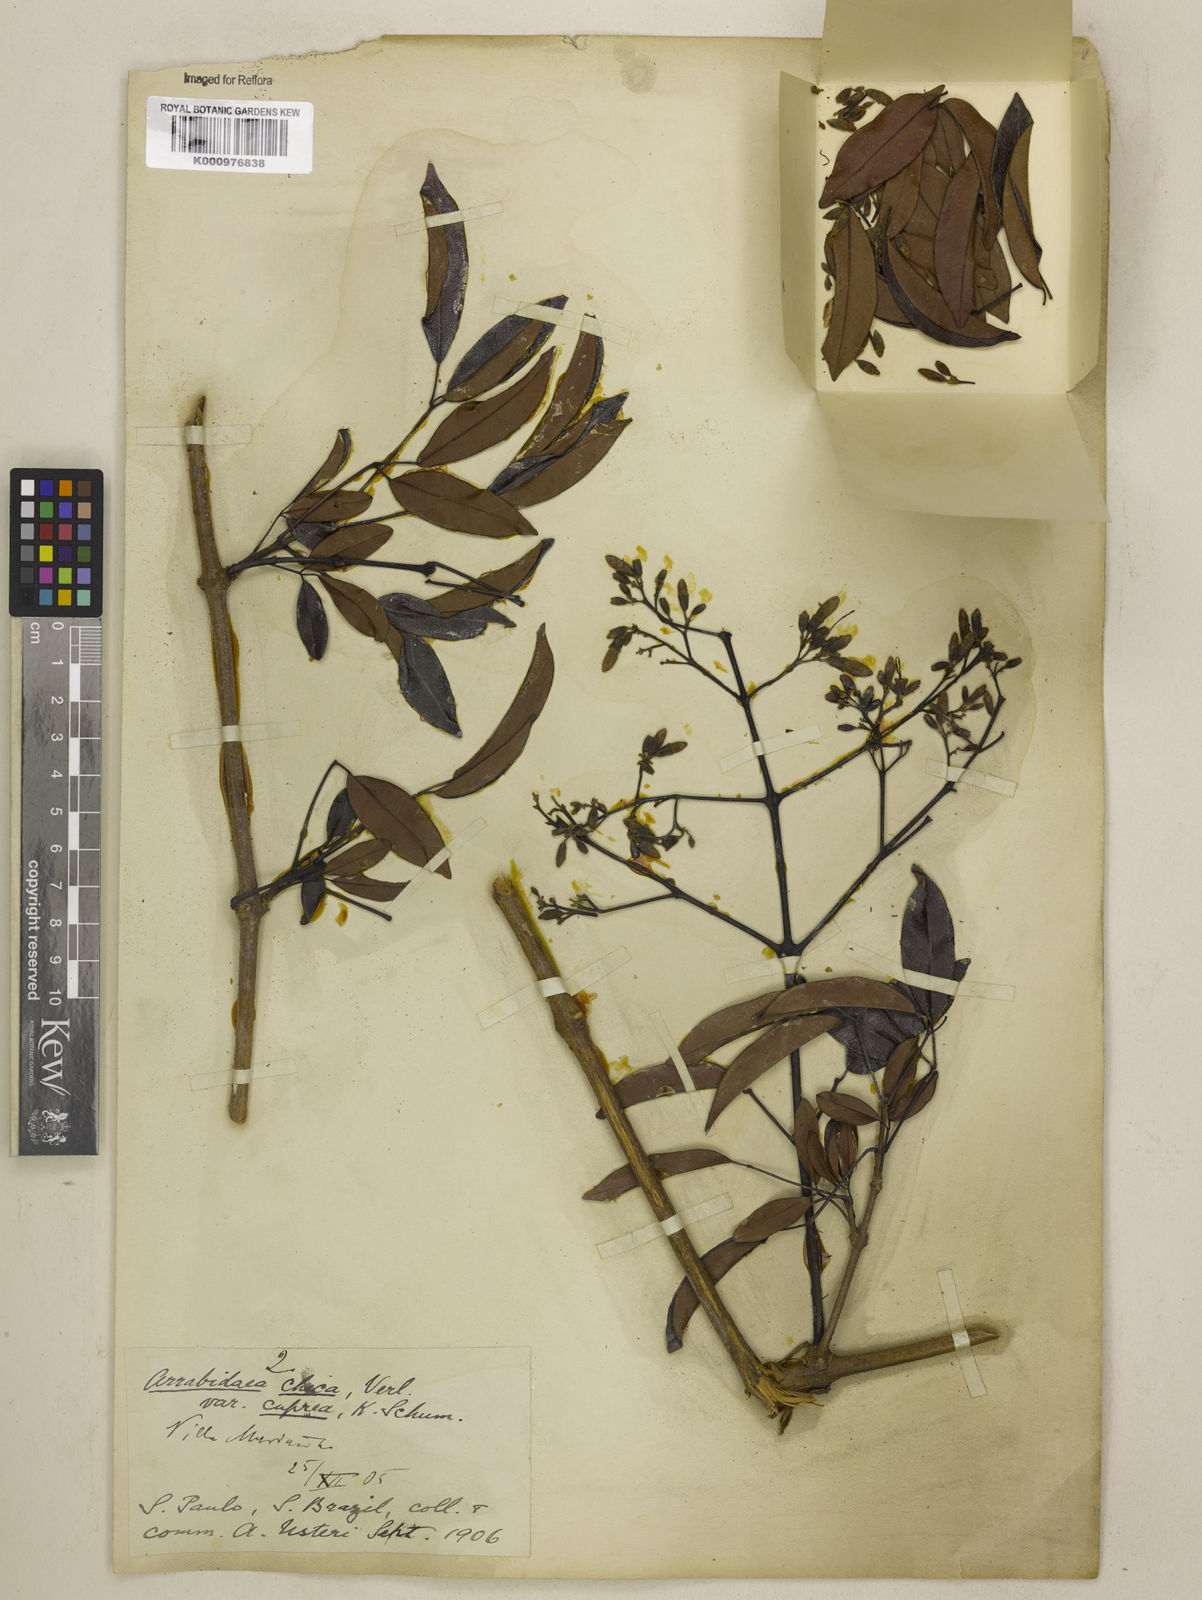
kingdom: Plantae
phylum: Tracheophyta
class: Magnoliopsida
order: Lamiales
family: Bignoniaceae
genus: Fridericia
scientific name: Fridericia chica
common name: Cricketvine
